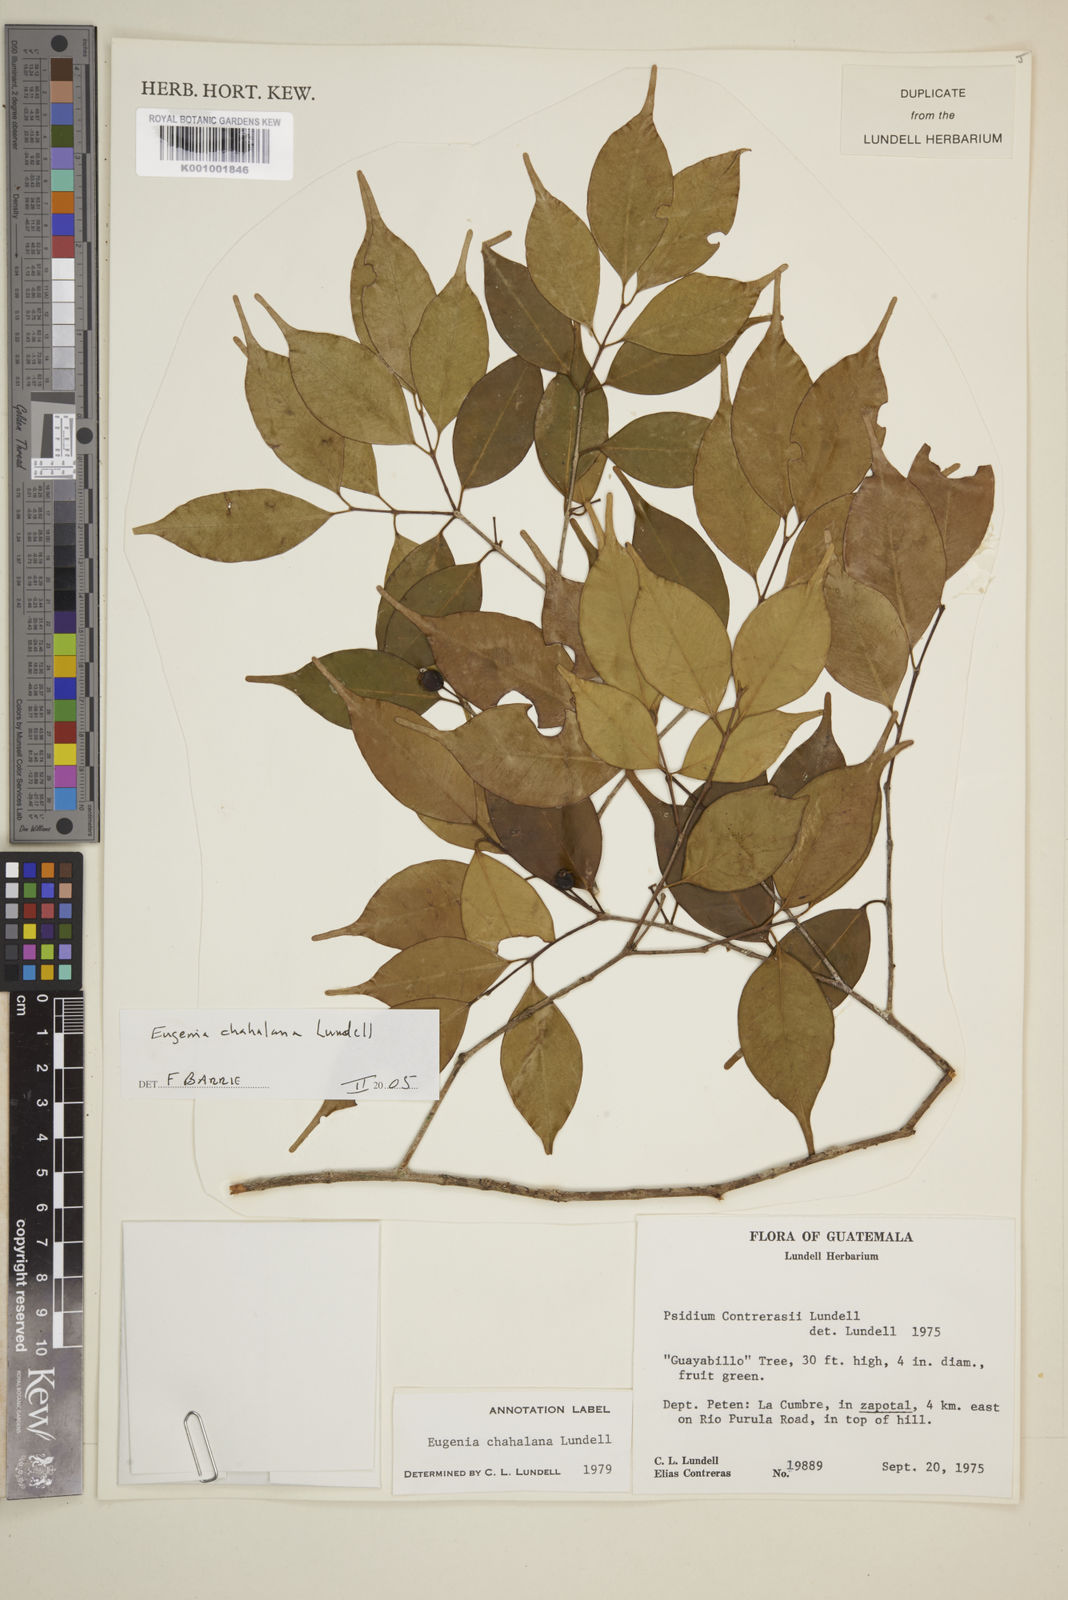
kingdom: Plantae
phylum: Tracheophyta
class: Magnoliopsida
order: Myrtales
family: Myrtaceae
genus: Eugenia
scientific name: Eugenia chahalana
